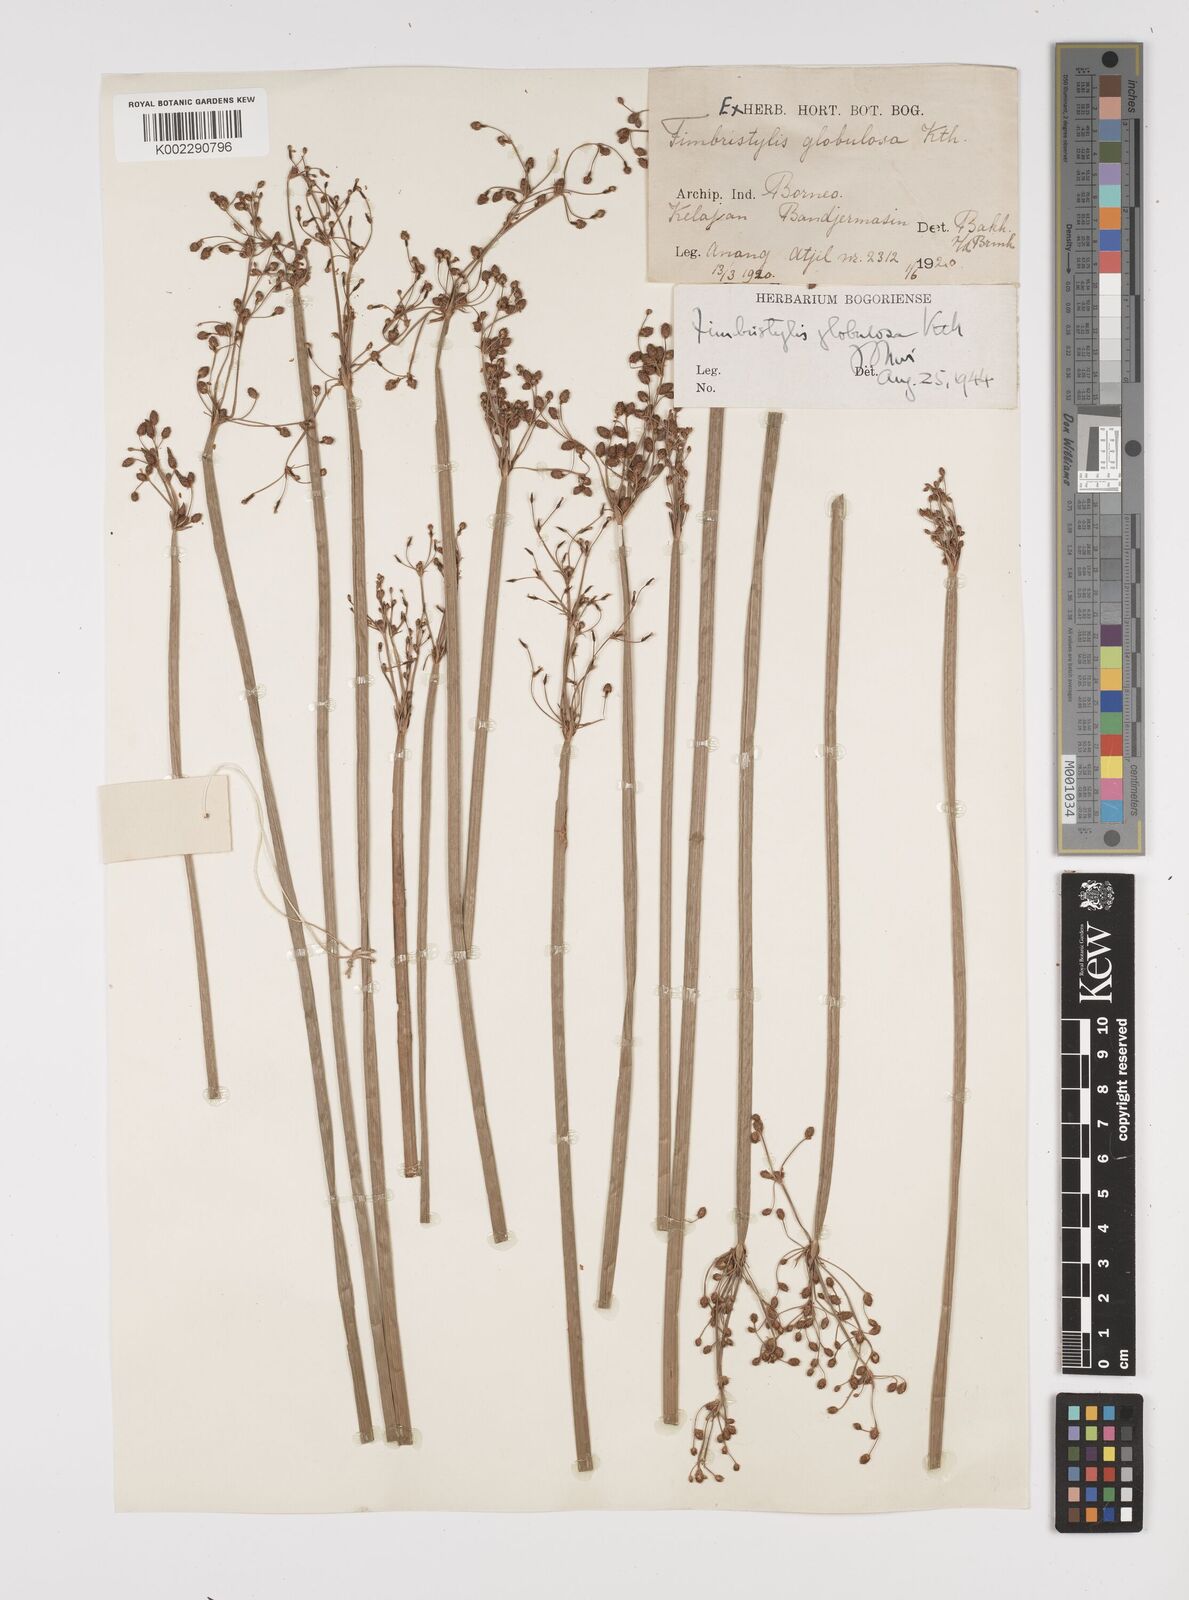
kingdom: Plantae
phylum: Tracheophyta
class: Liliopsida
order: Poales
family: Cyperaceae
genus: Fimbristylis
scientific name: Fimbristylis umbellaris
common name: Globular fimbristylis
